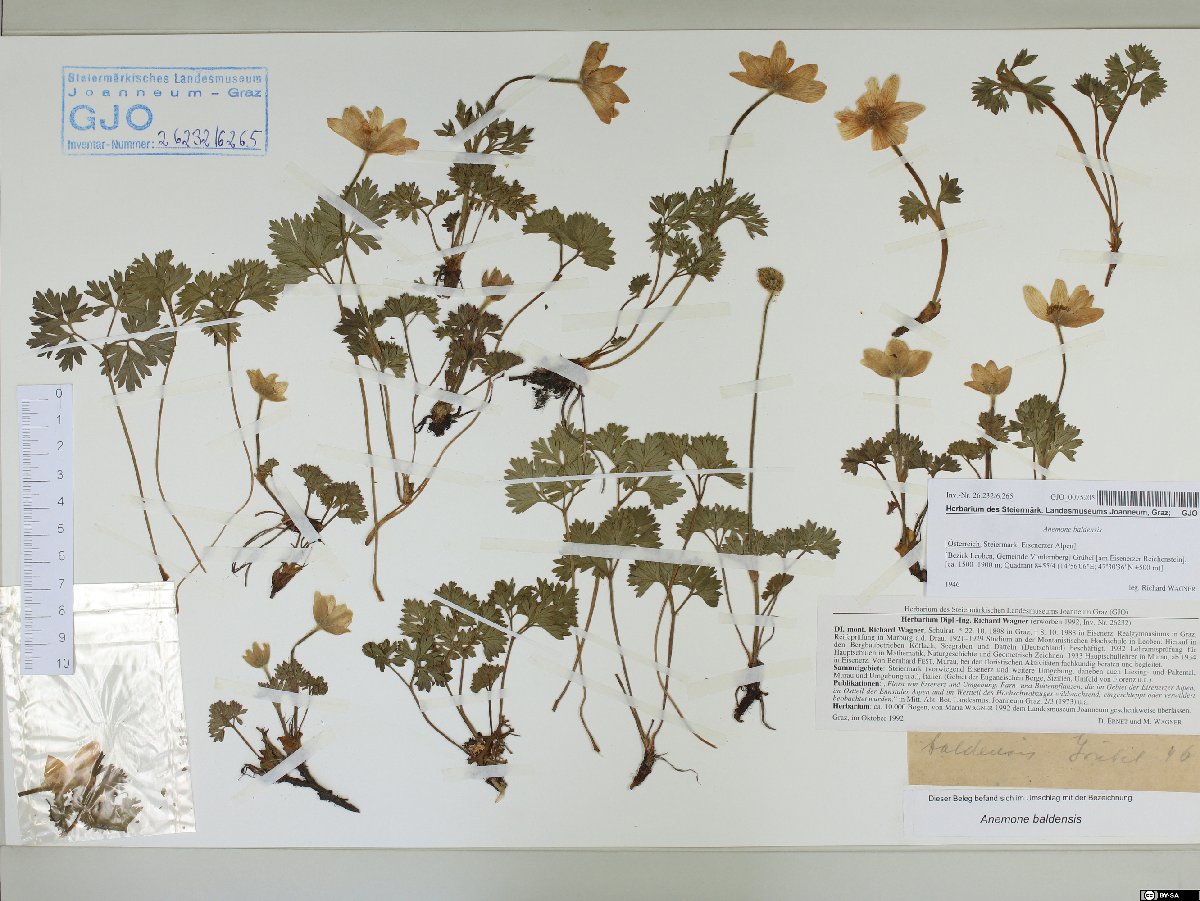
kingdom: Plantae
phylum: Tracheophyta
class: Magnoliopsida
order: Ranunculales
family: Ranunculaceae
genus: Anemone
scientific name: Anemone baldensis
